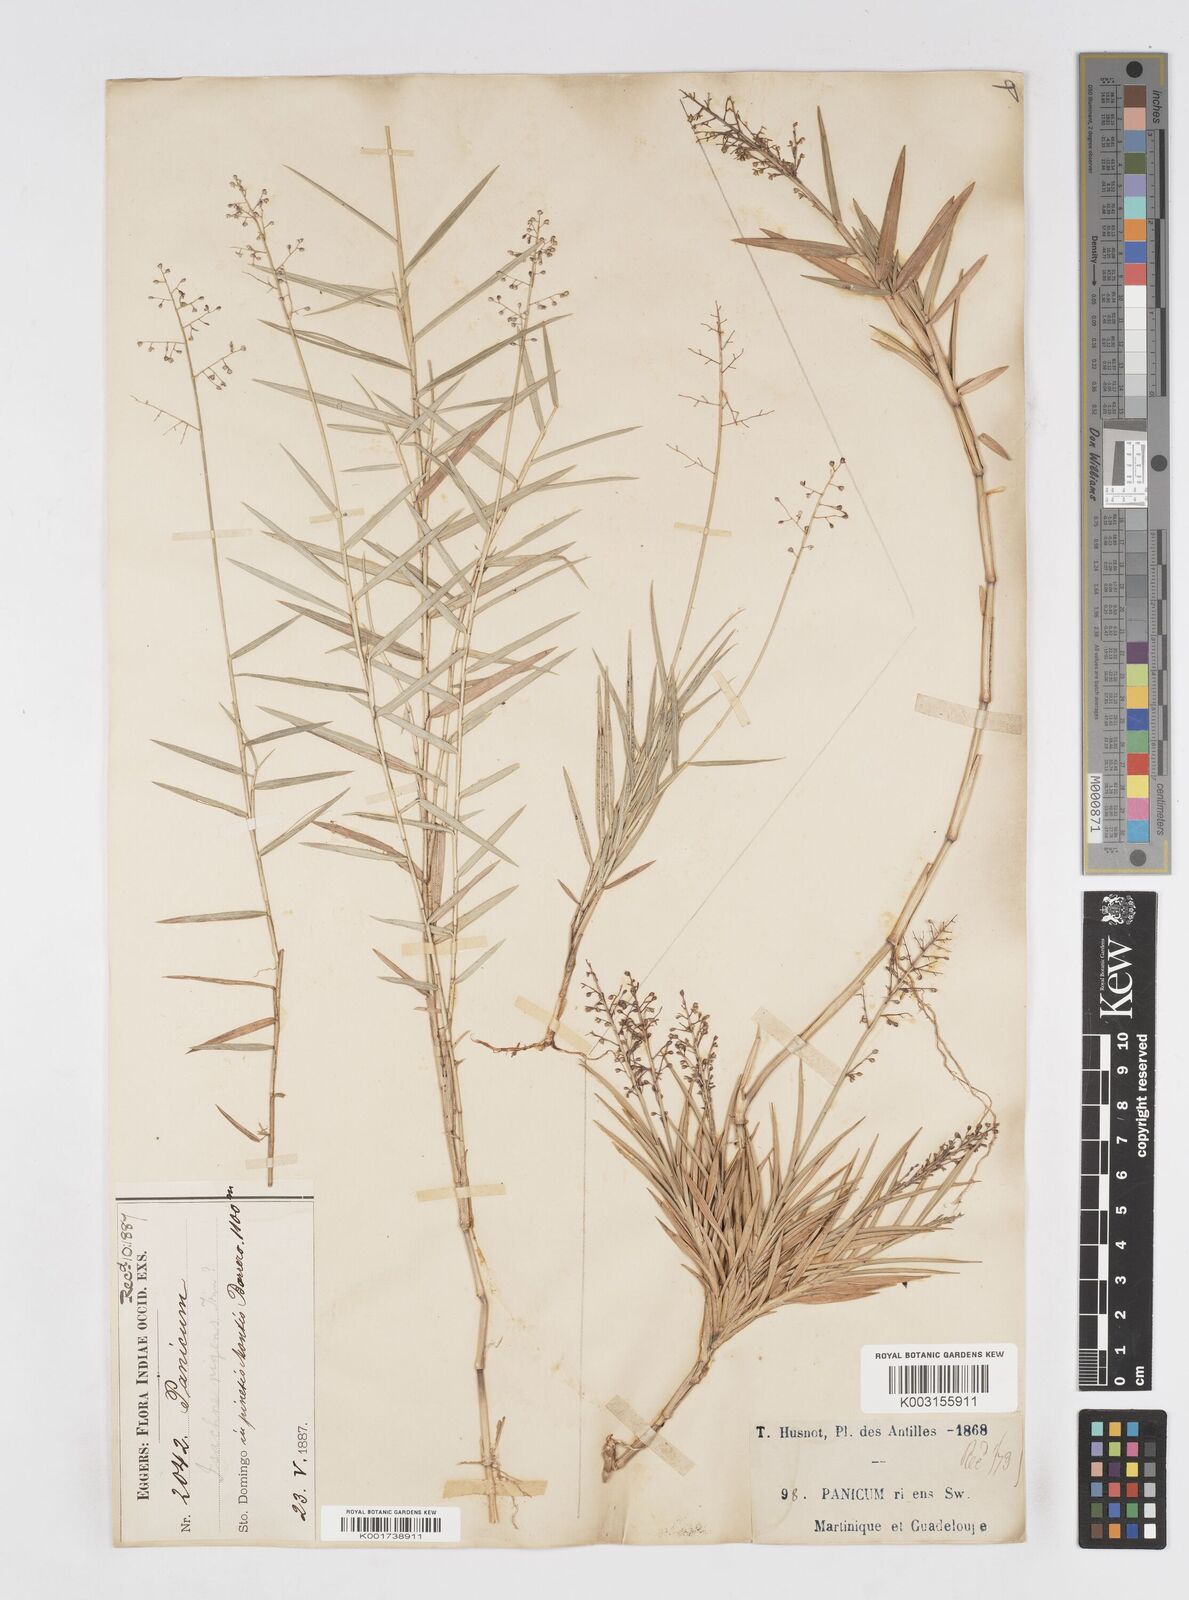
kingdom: Plantae
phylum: Tracheophyta
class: Liliopsida
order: Poales
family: Poaceae
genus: Isachne
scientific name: Isachne rigidifolia
